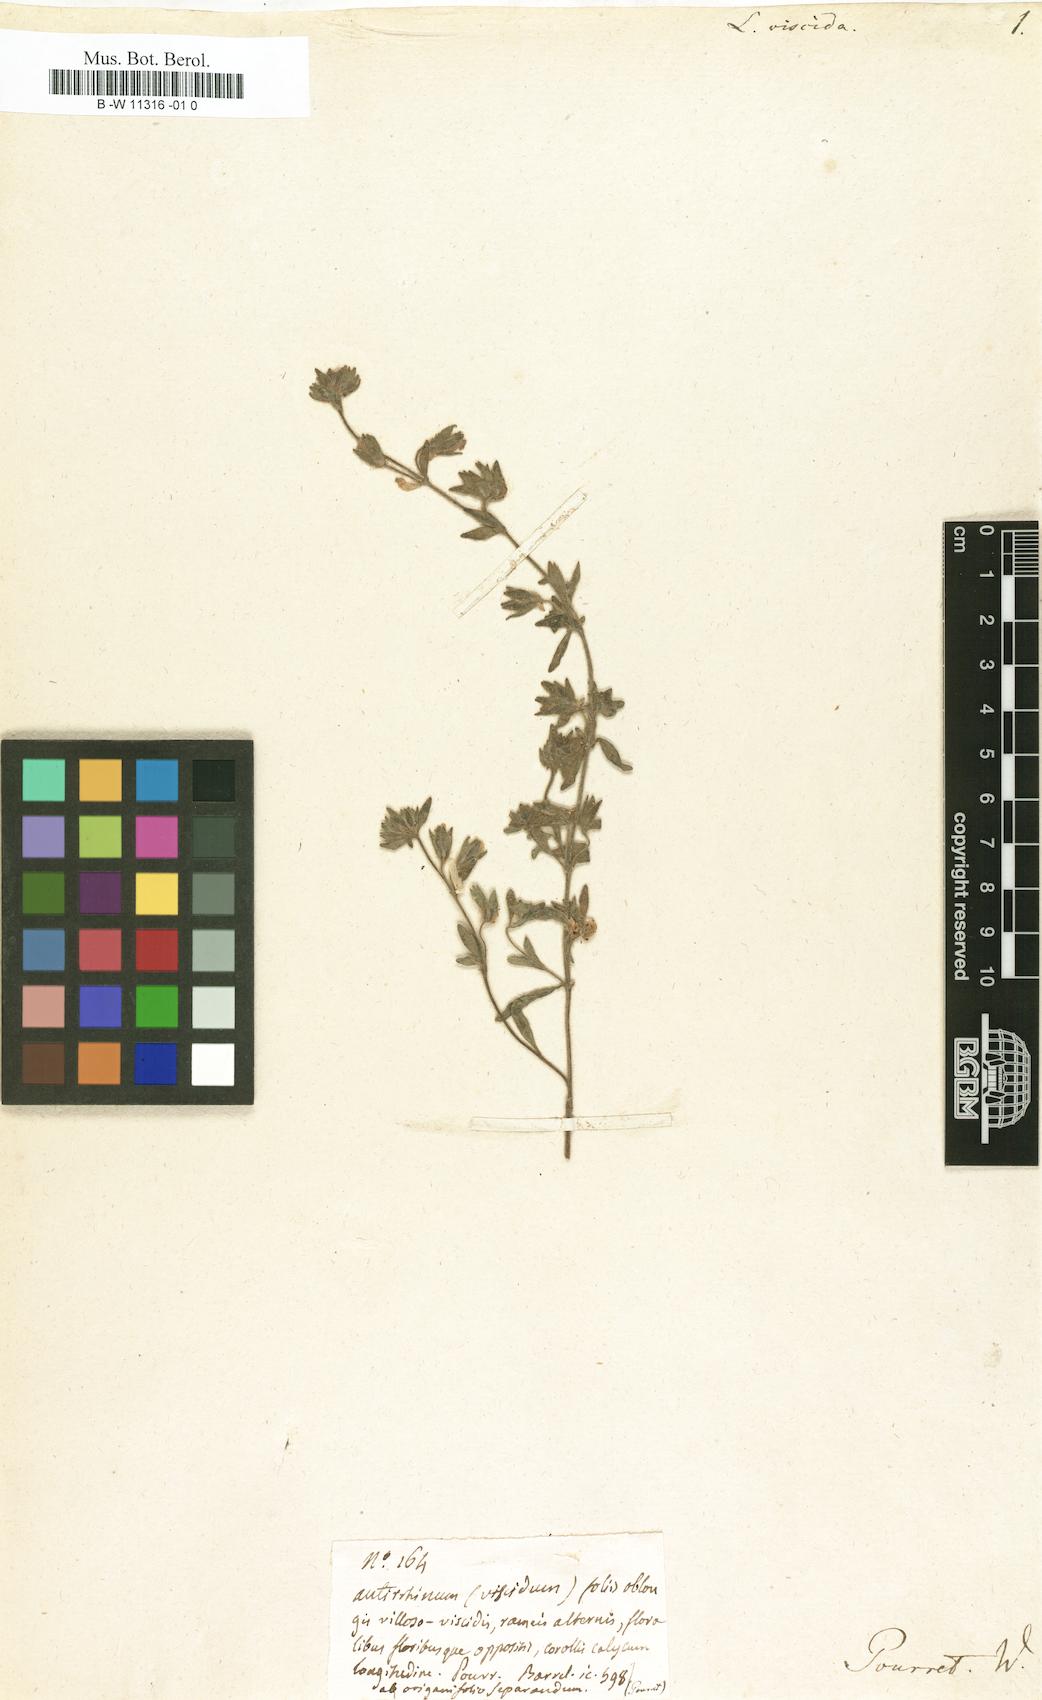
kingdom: Plantae
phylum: Tracheophyta
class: Magnoliopsida
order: Lamiales
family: Plantaginaceae
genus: Chaenorhinum
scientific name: Chaenorhinum minus
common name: Dwarf snapdragon
